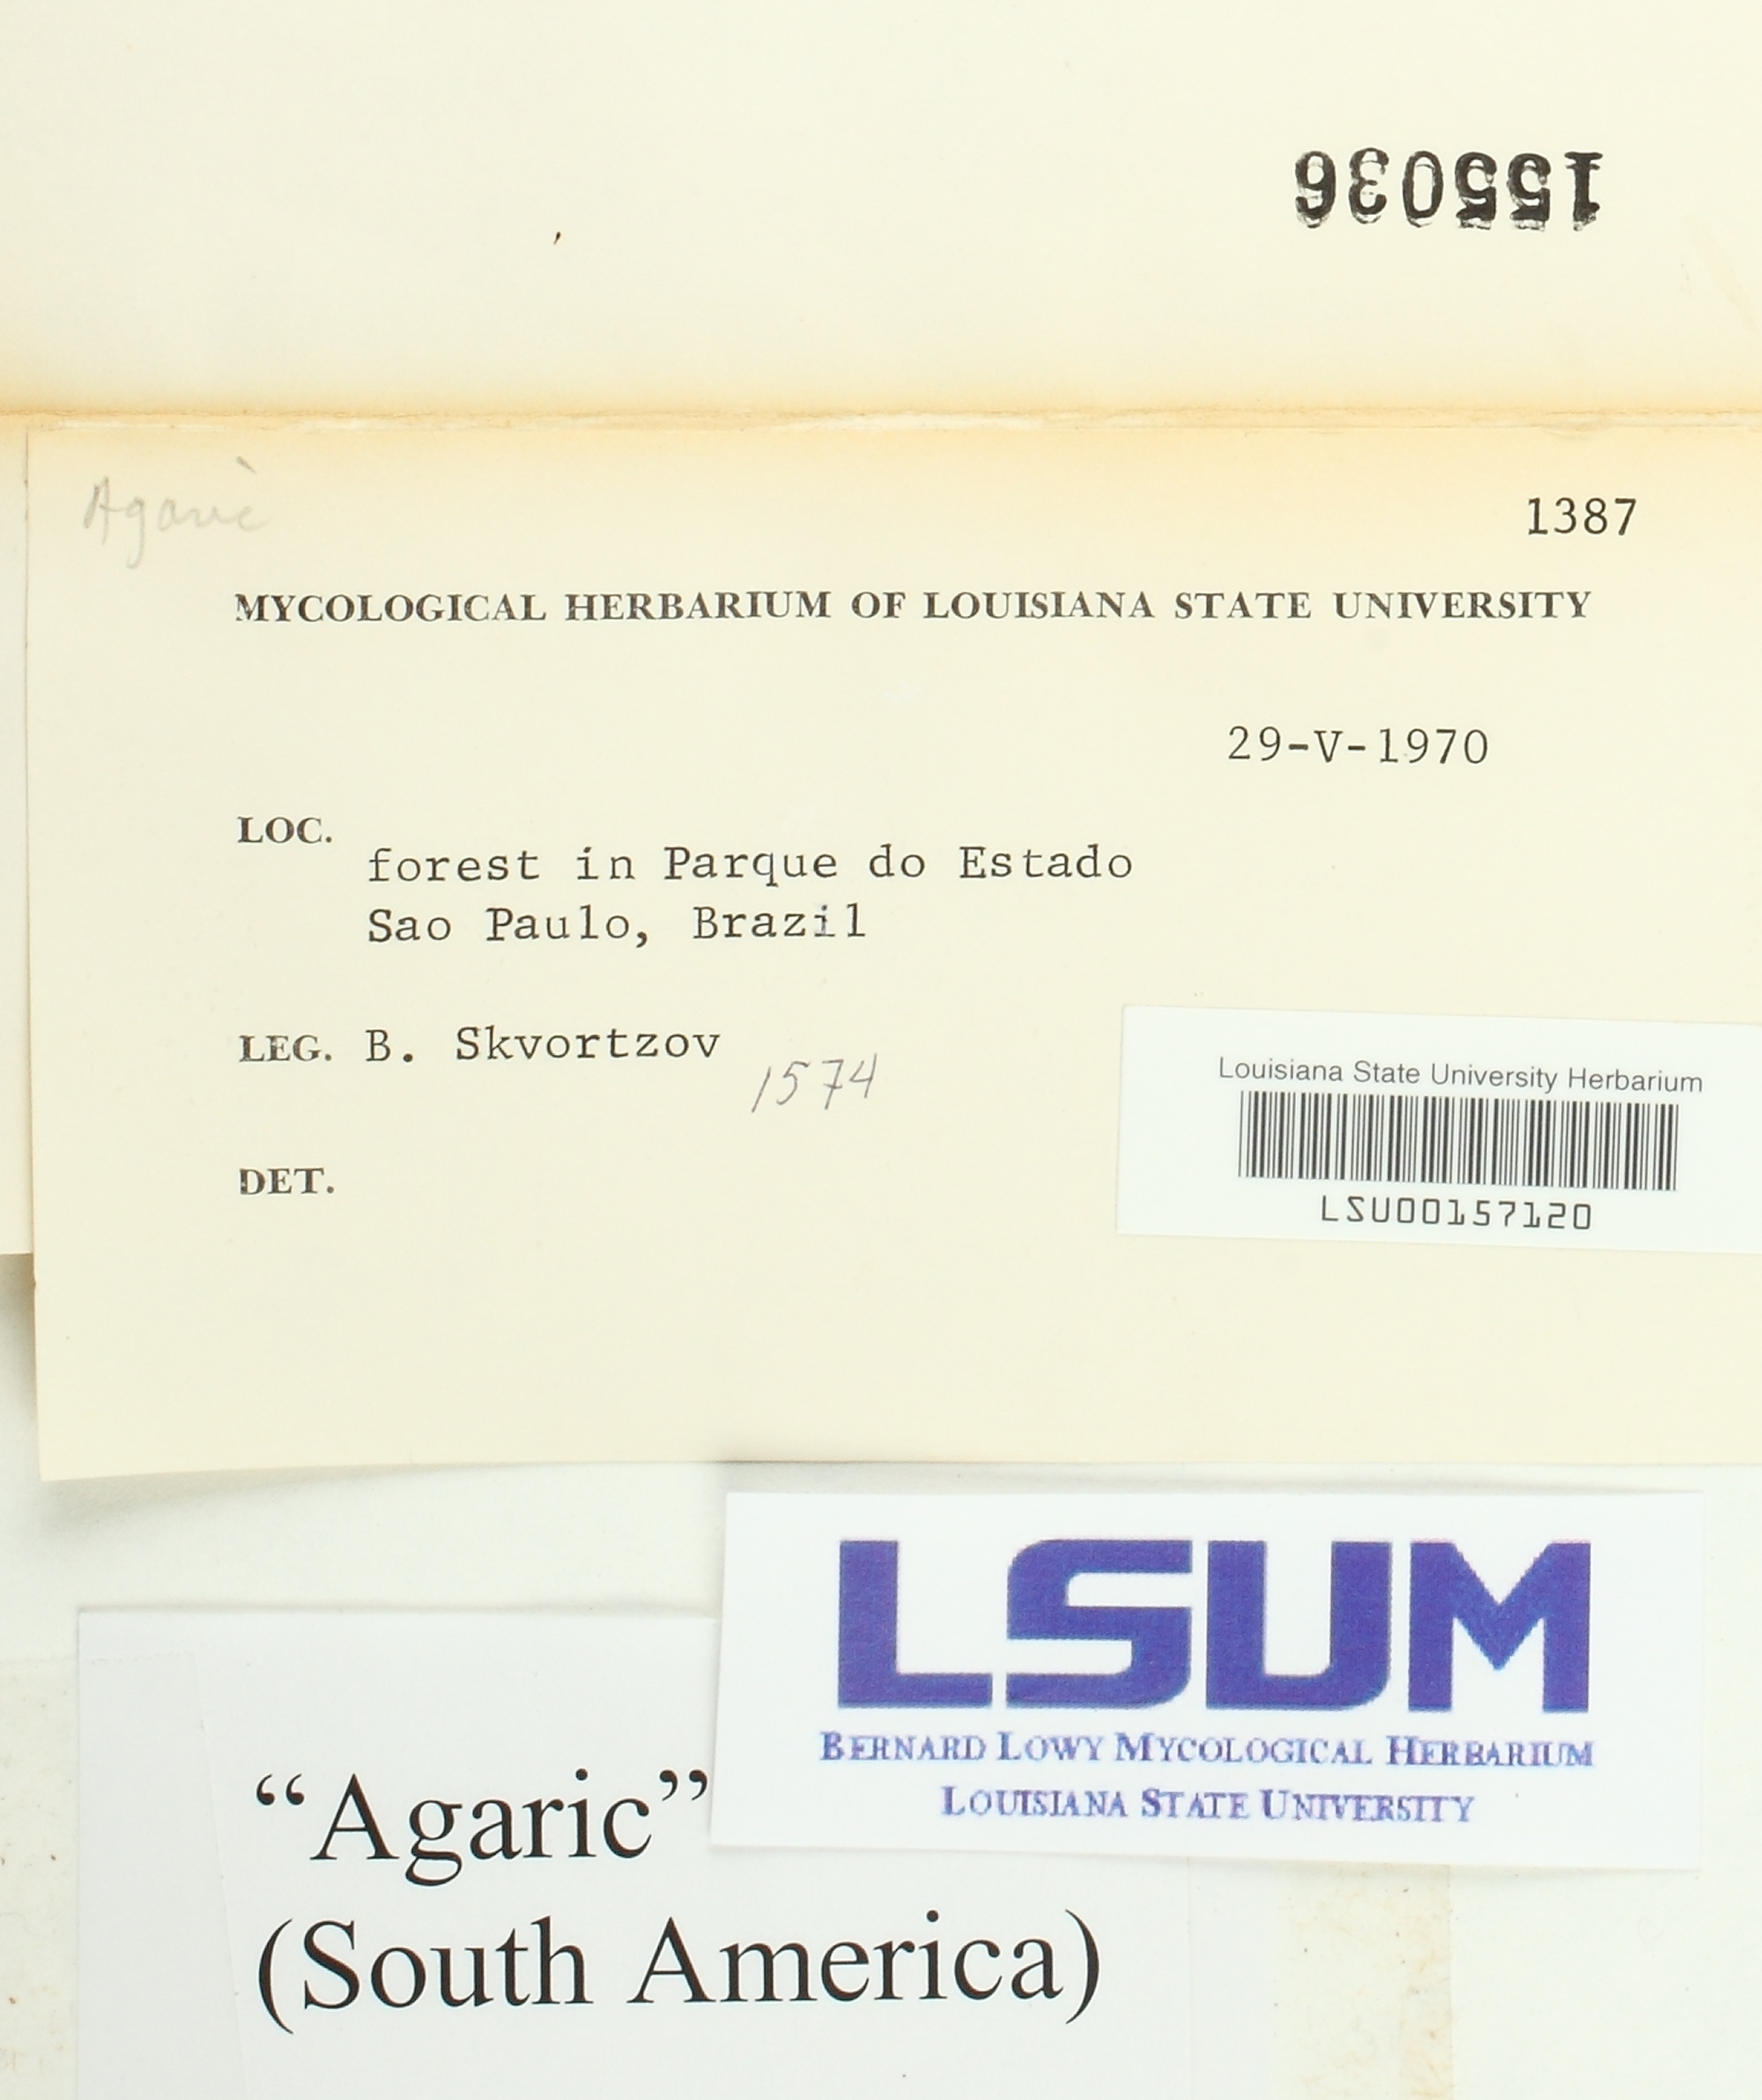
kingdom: Fungi
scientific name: Fungi
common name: Fungi
